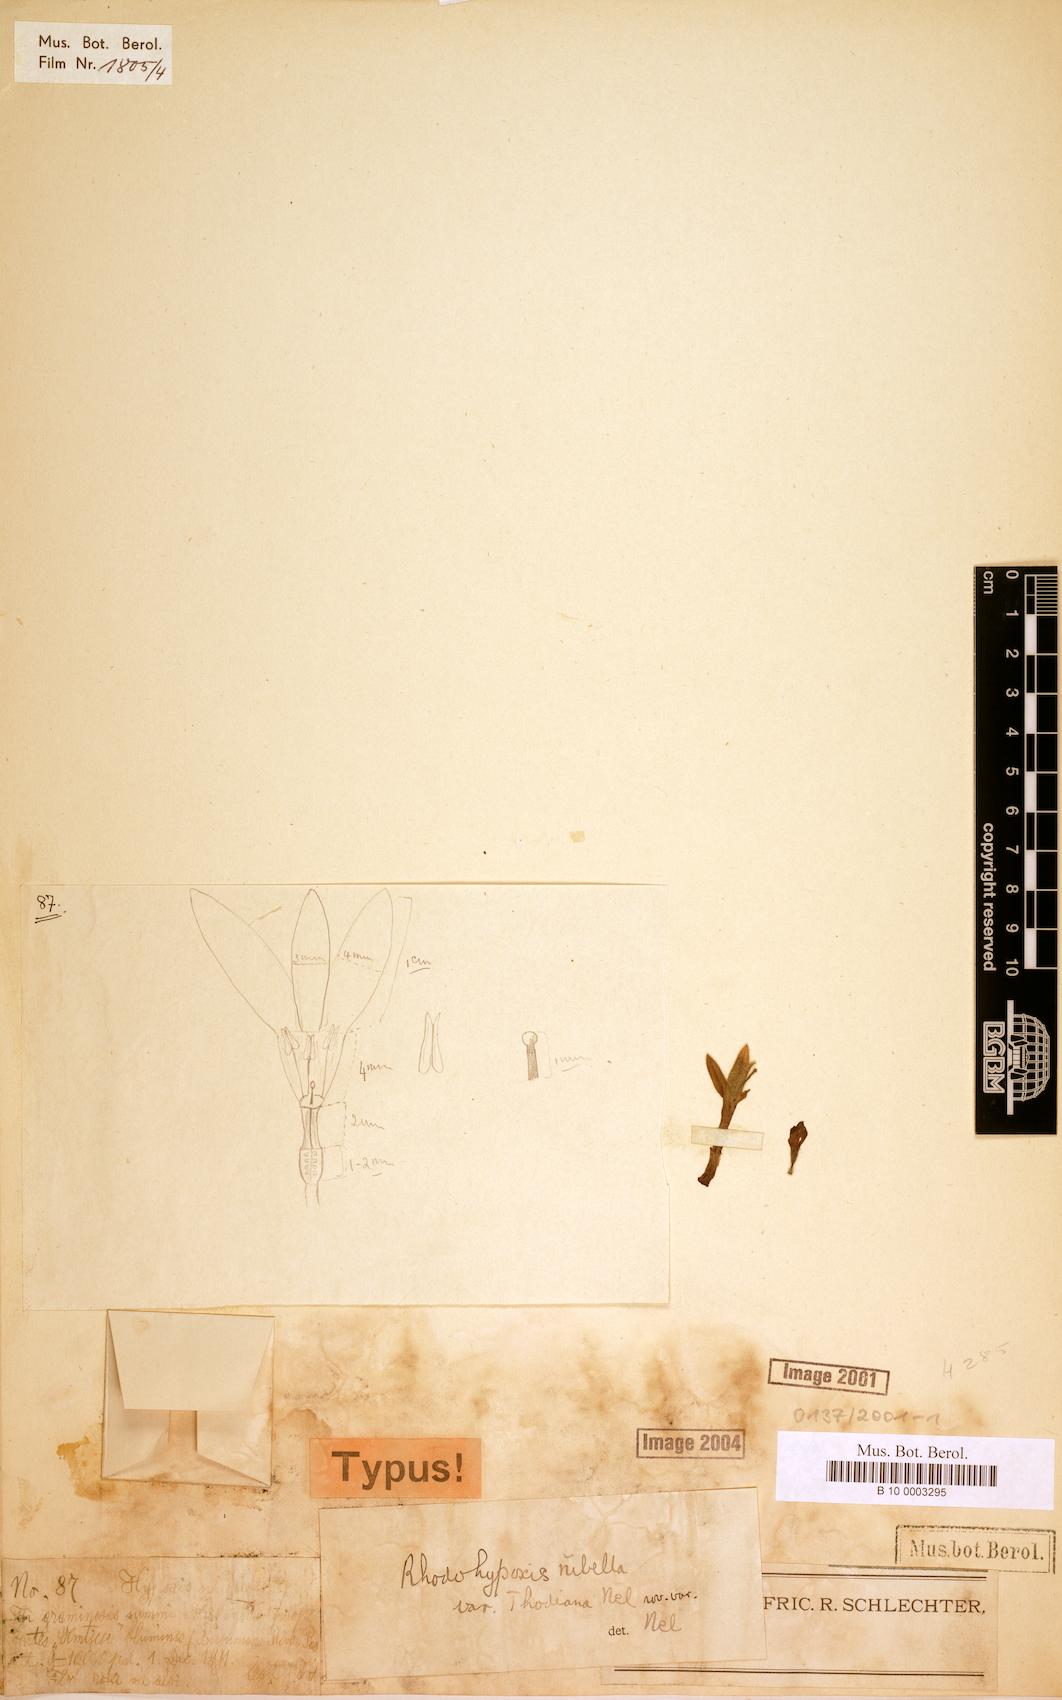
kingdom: Plantae
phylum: Tracheophyta
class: Liliopsida
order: Asparagales
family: Hypoxidaceae
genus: Hypoxis
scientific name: Hypoxis Rhodohypoxis thodiana
